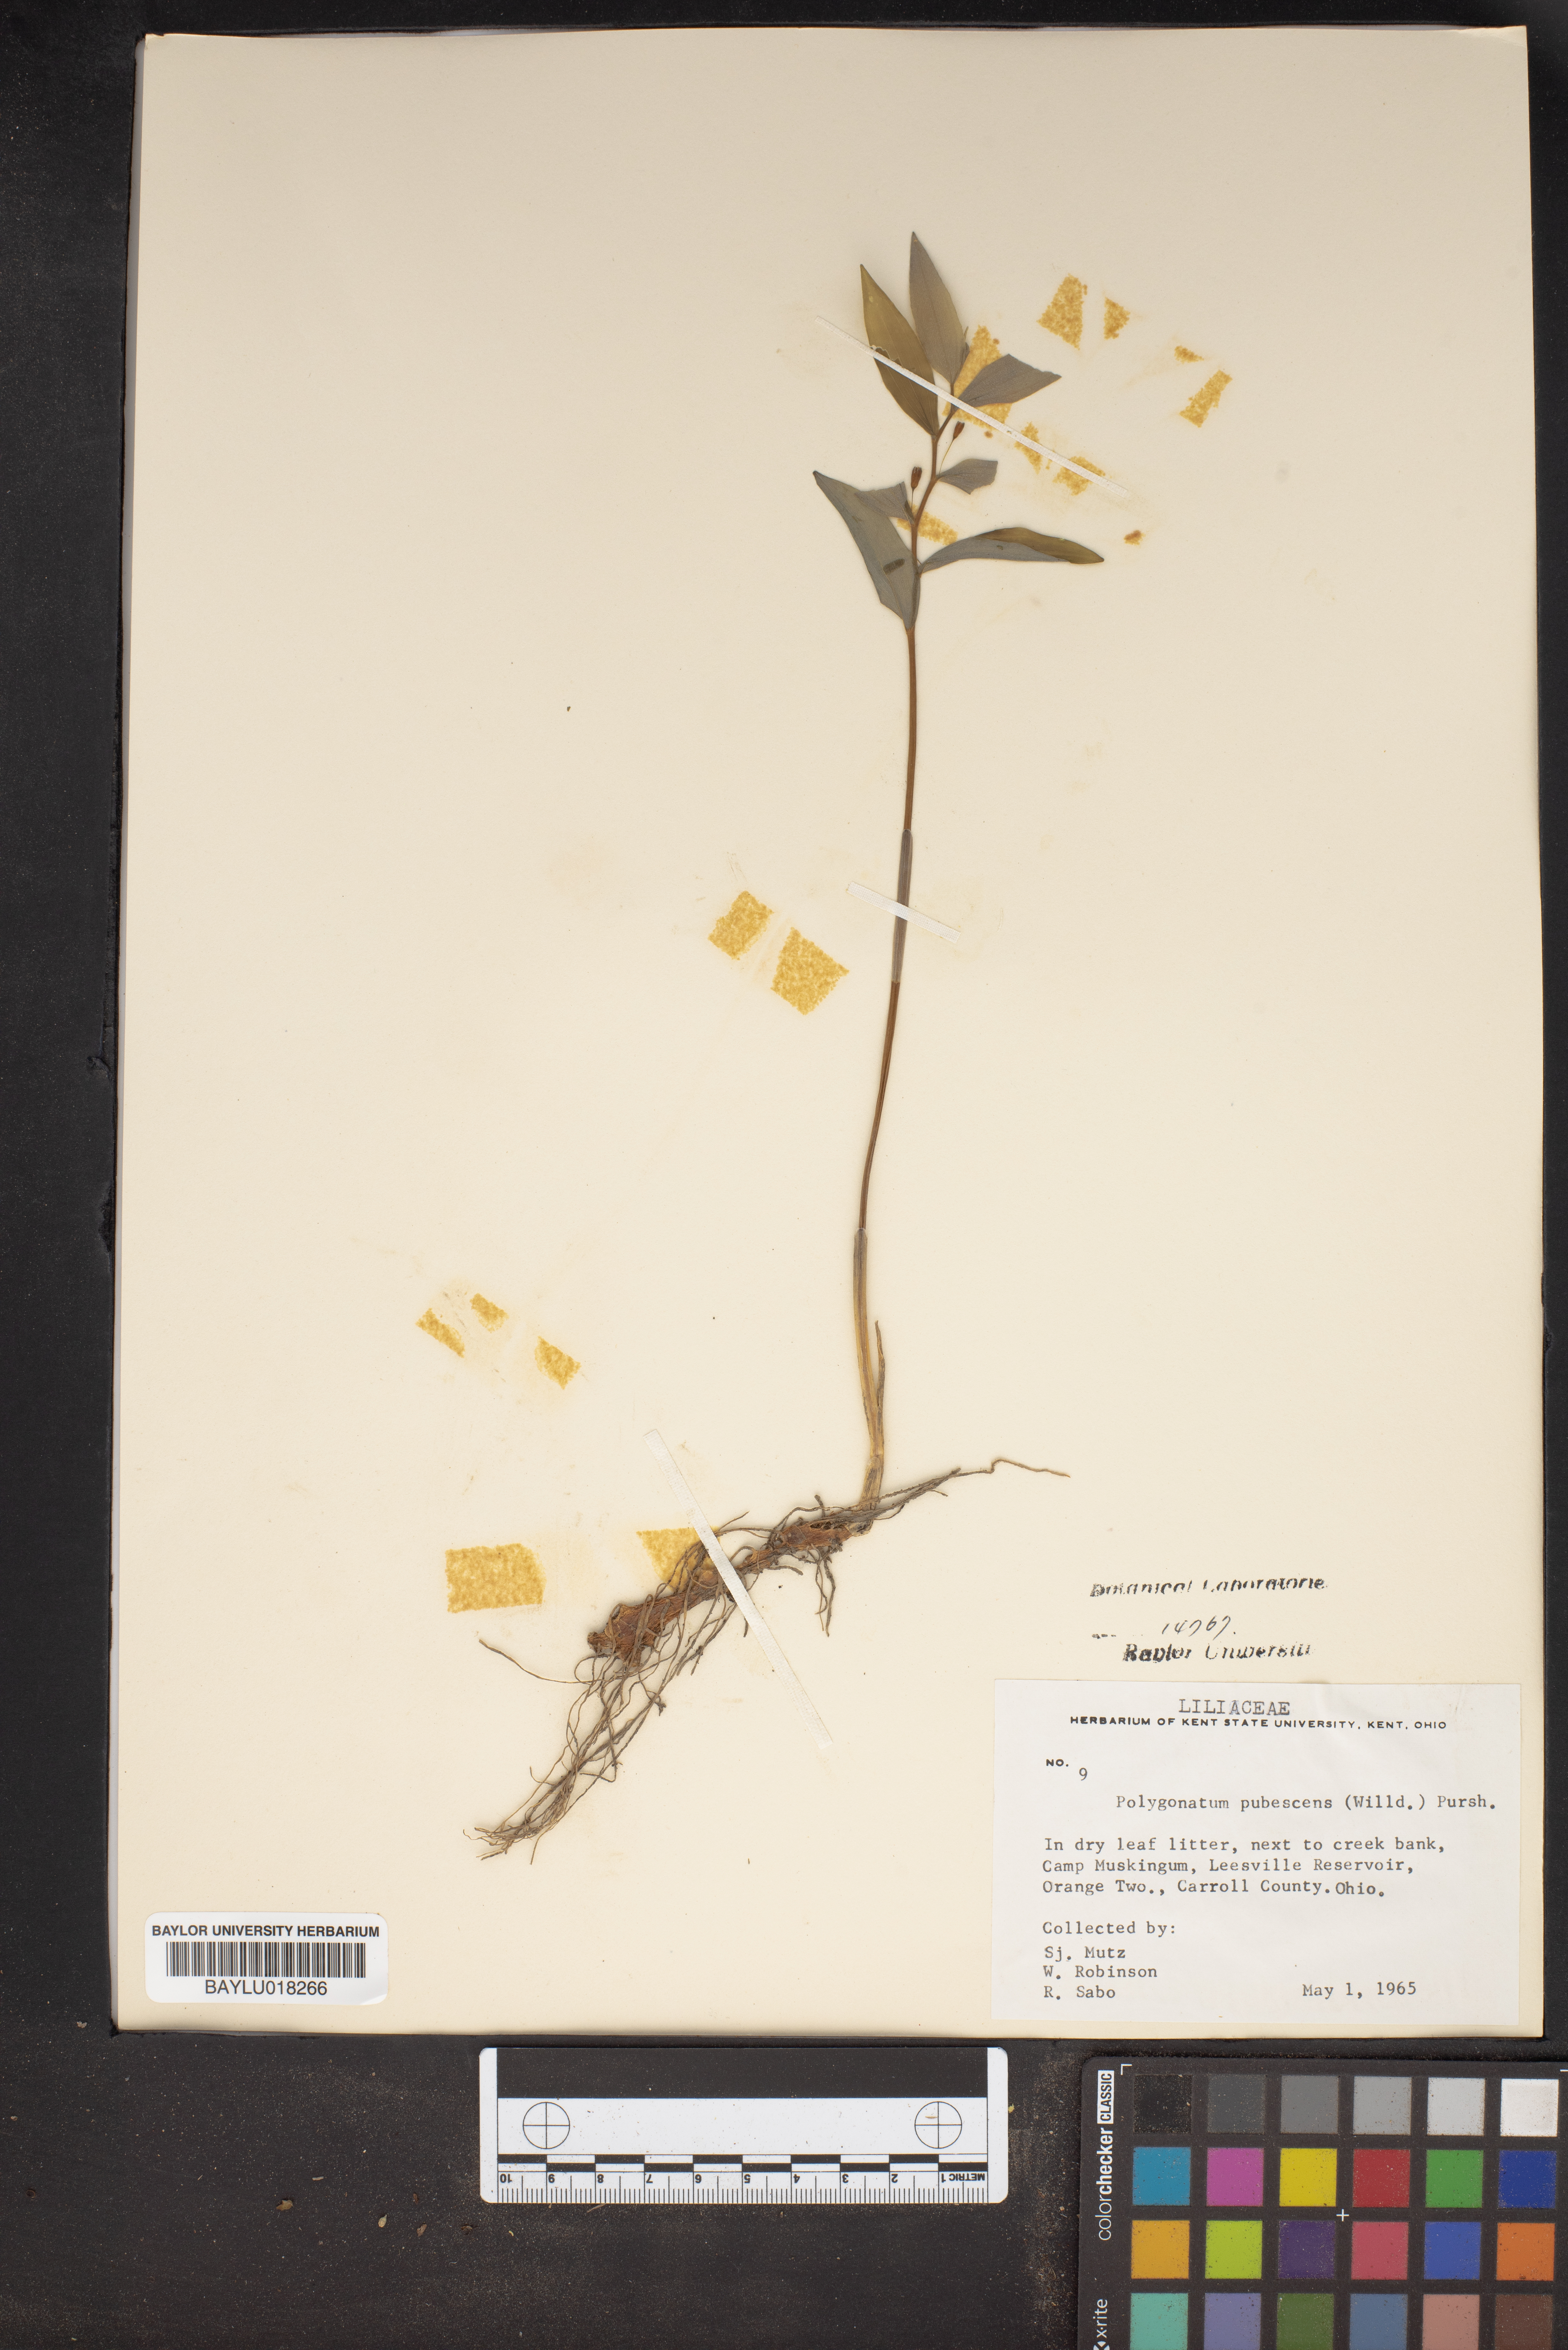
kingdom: Plantae
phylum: Tracheophyta
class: Liliopsida
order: Asparagales
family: Asparagaceae
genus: Polygonatum
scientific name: Polygonatum pubescens
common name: Downy solomon's seal
